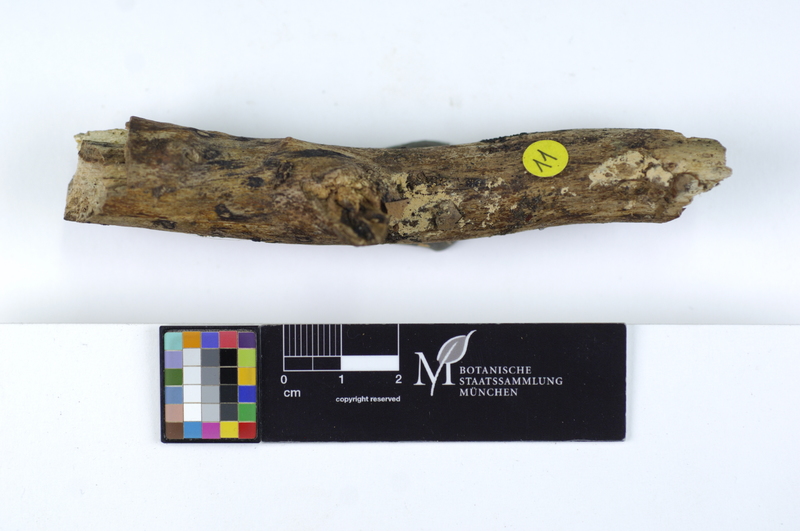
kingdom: Plantae
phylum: Tracheophyta
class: Magnoliopsida
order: Fagales
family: Fagaceae
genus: Fagus
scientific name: Fagus sylvatica
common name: Beech
